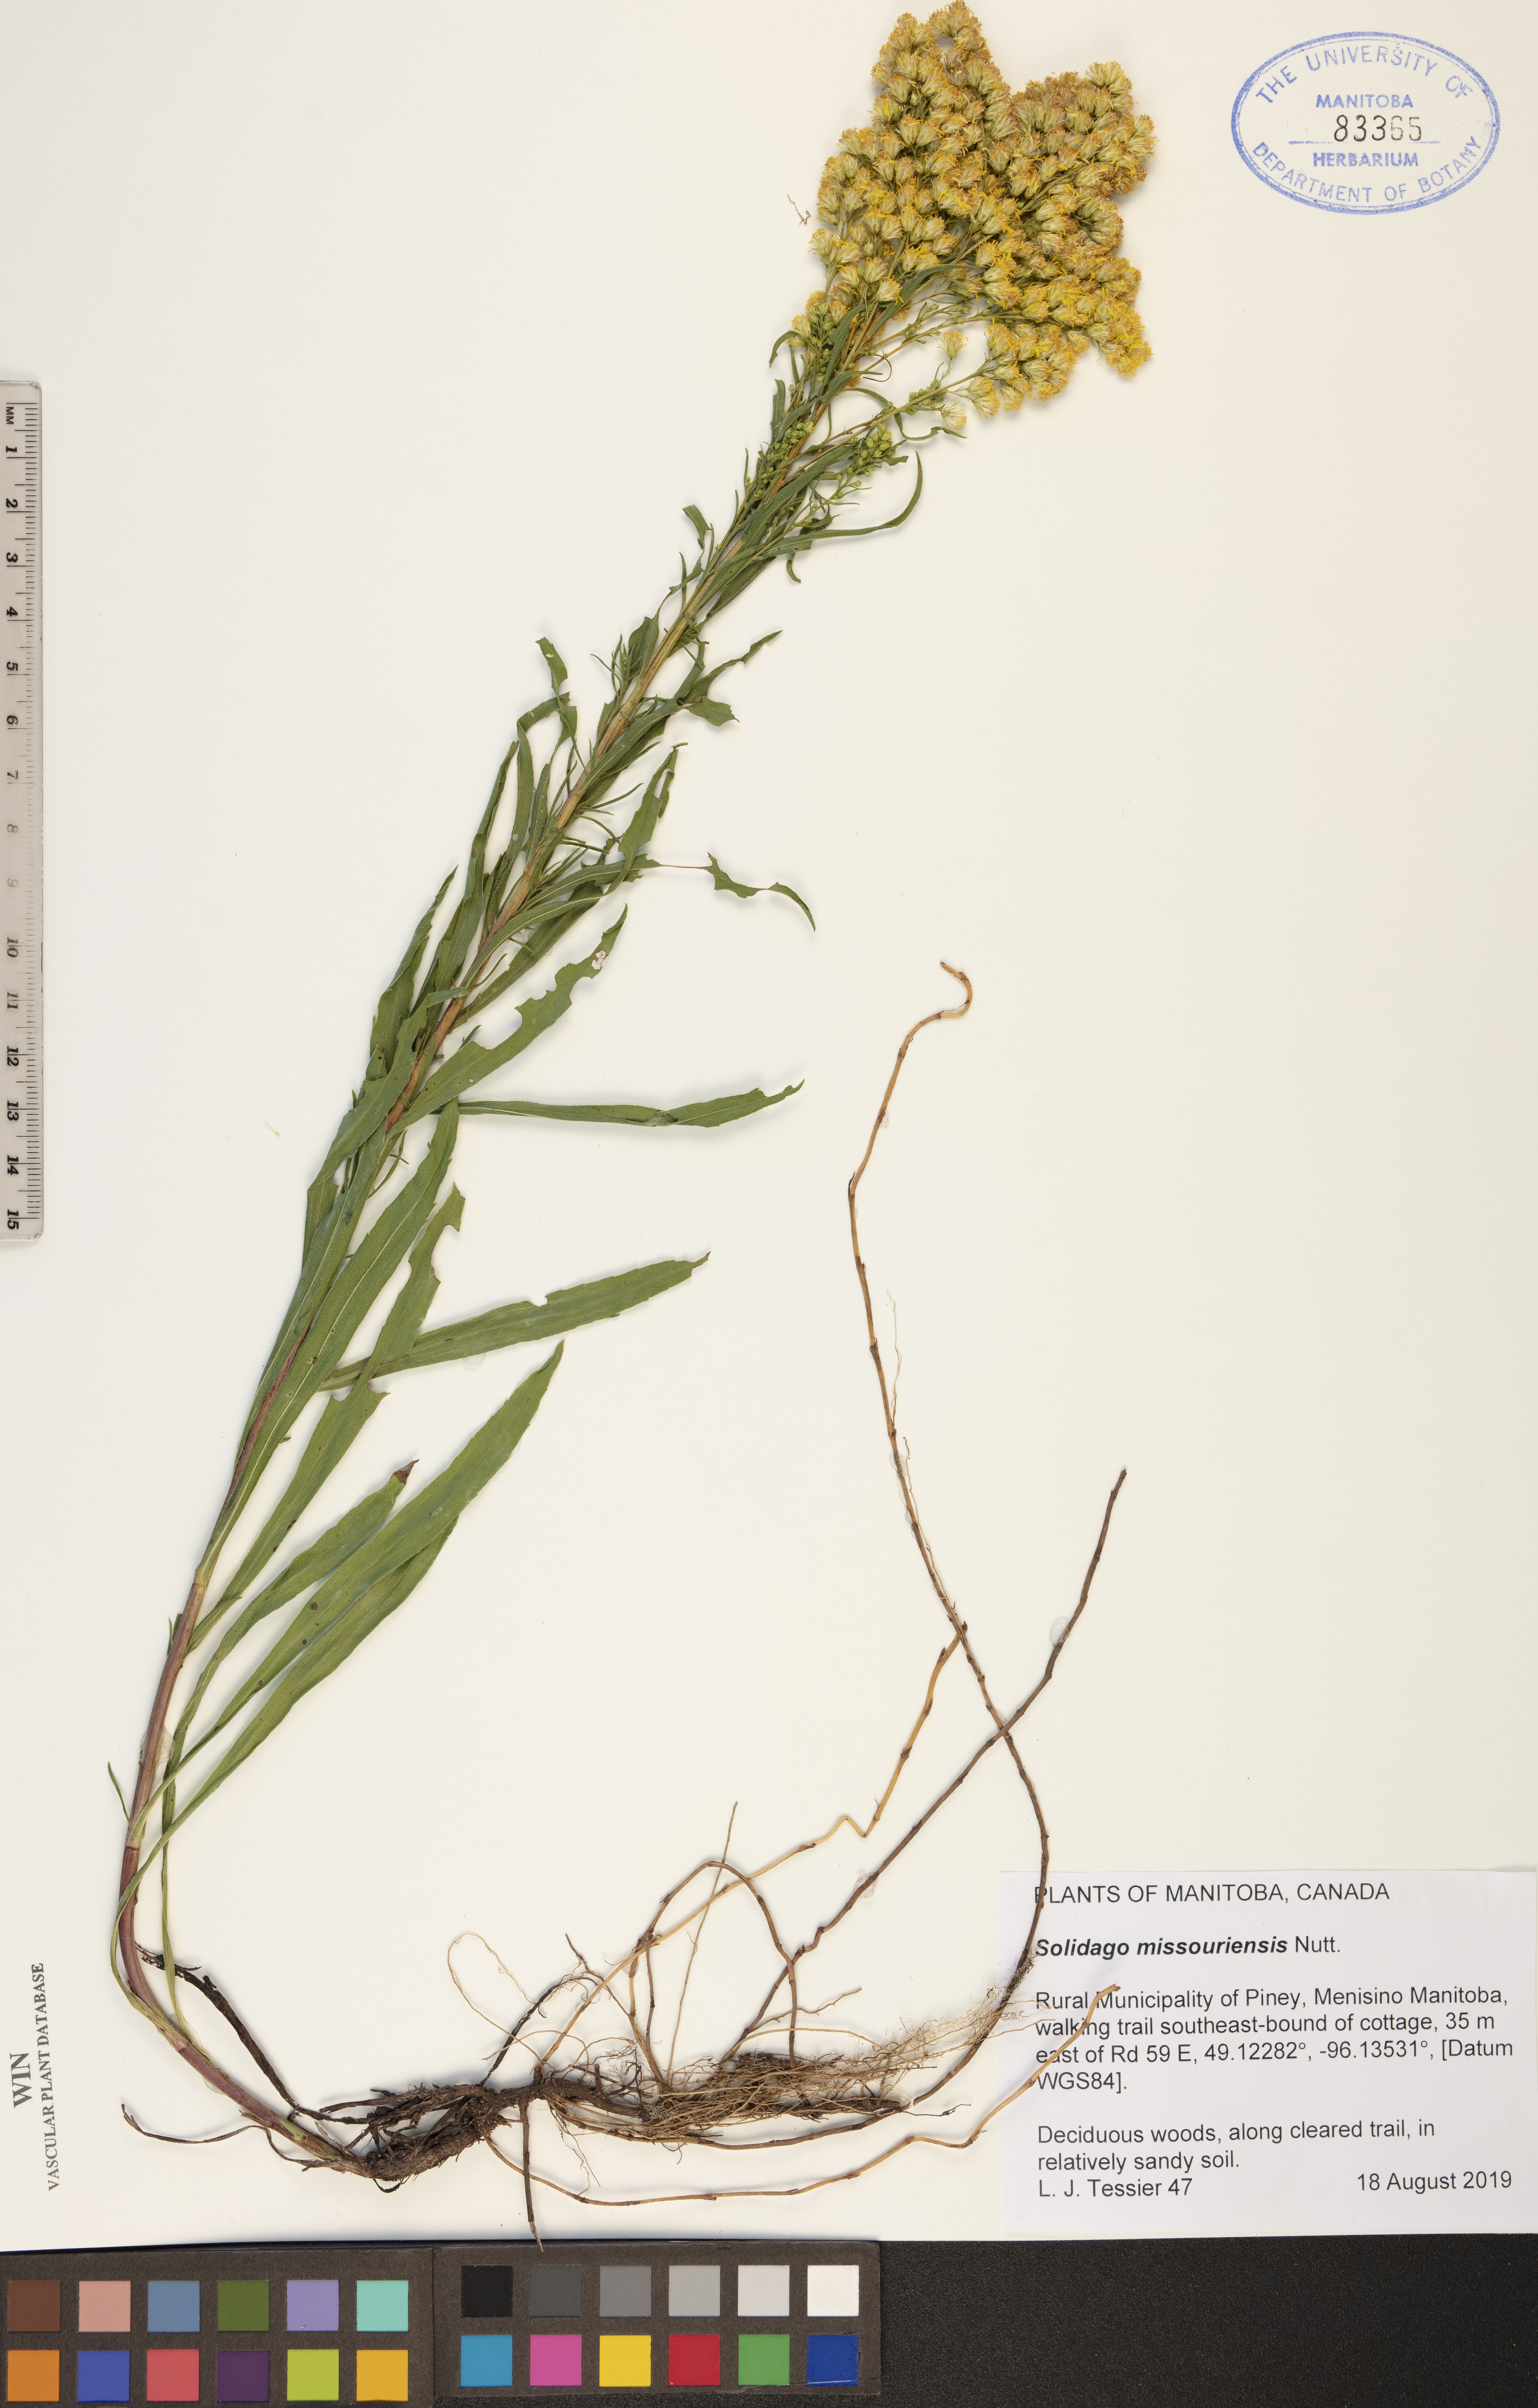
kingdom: Plantae
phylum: Tracheophyta
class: Magnoliopsida
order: Asterales
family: Asteraceae
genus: Solidago
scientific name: Solidago missouriensis
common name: Prairie goldenrod
